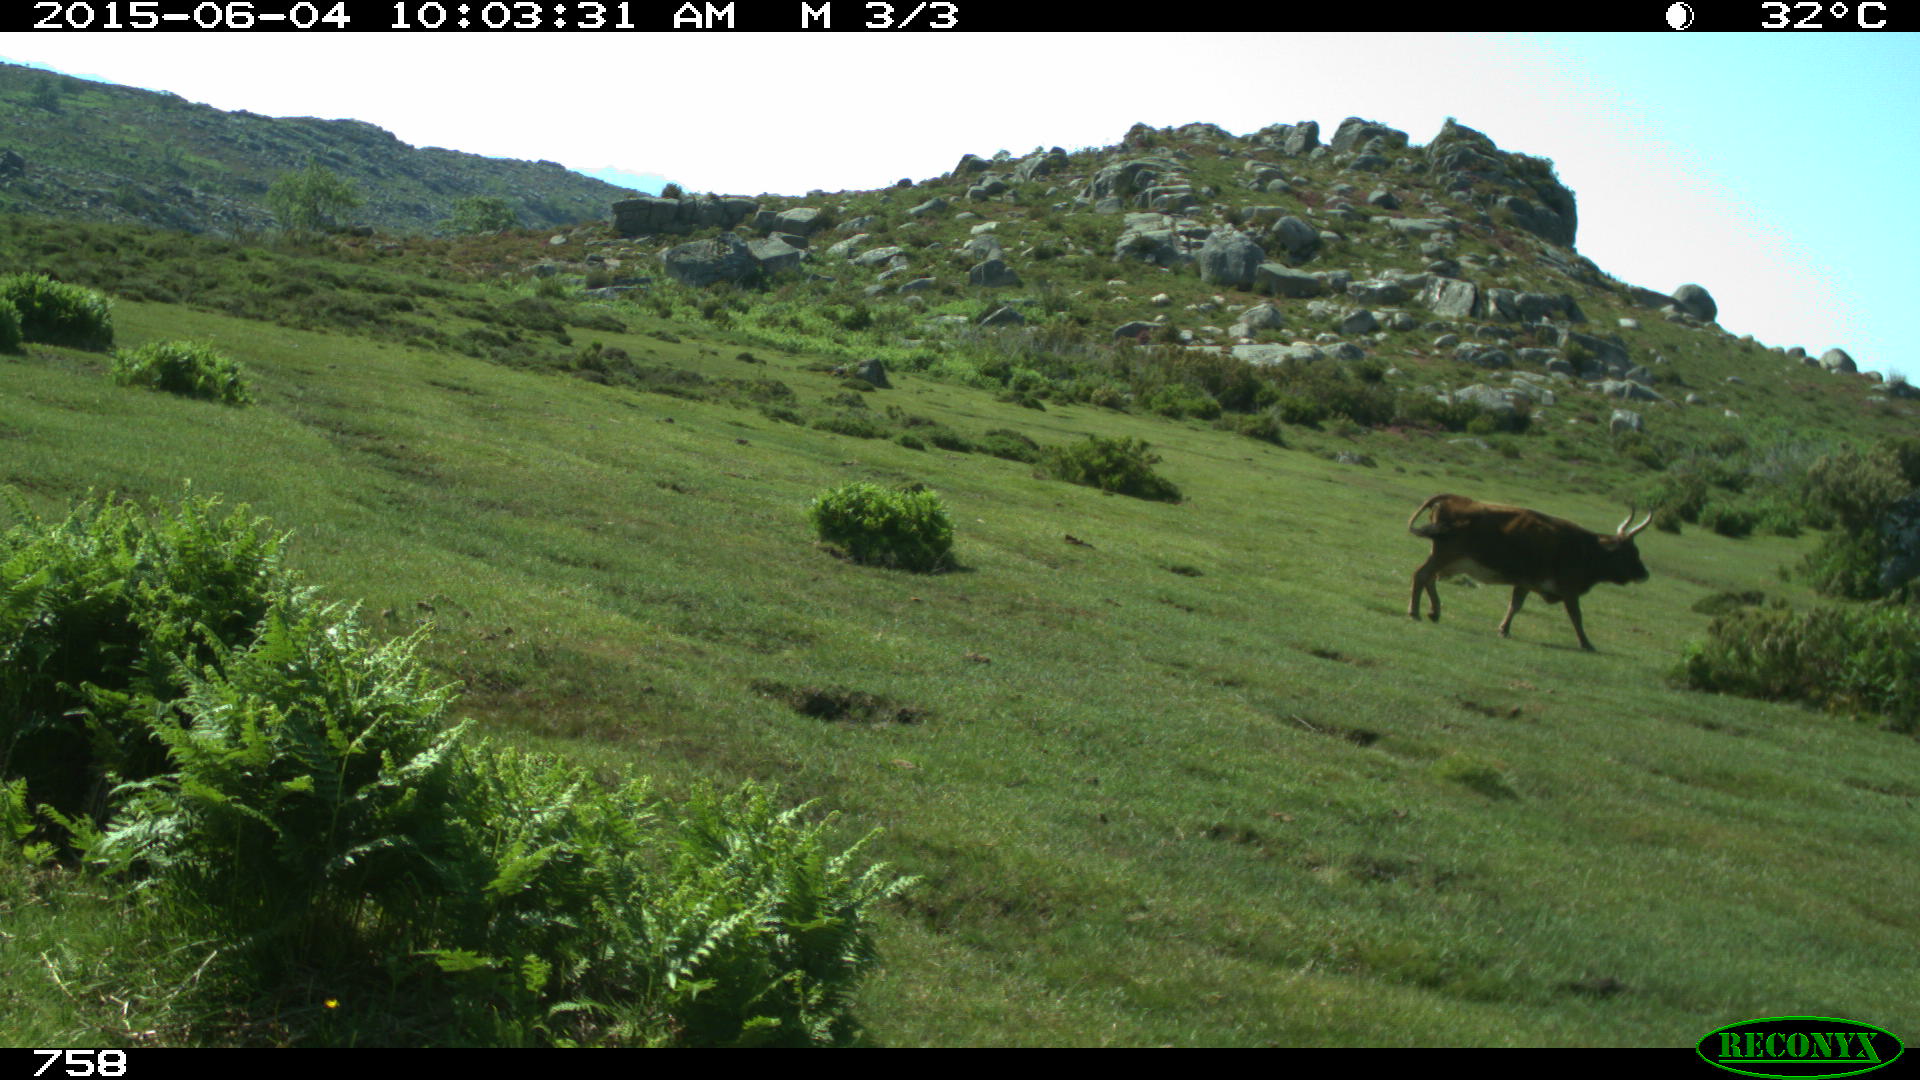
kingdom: Animalia
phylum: Chordata
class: Mammalia
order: Artiodactyla
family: Bovidae
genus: Bos
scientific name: Bos taurus
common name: Domesticated cattle
